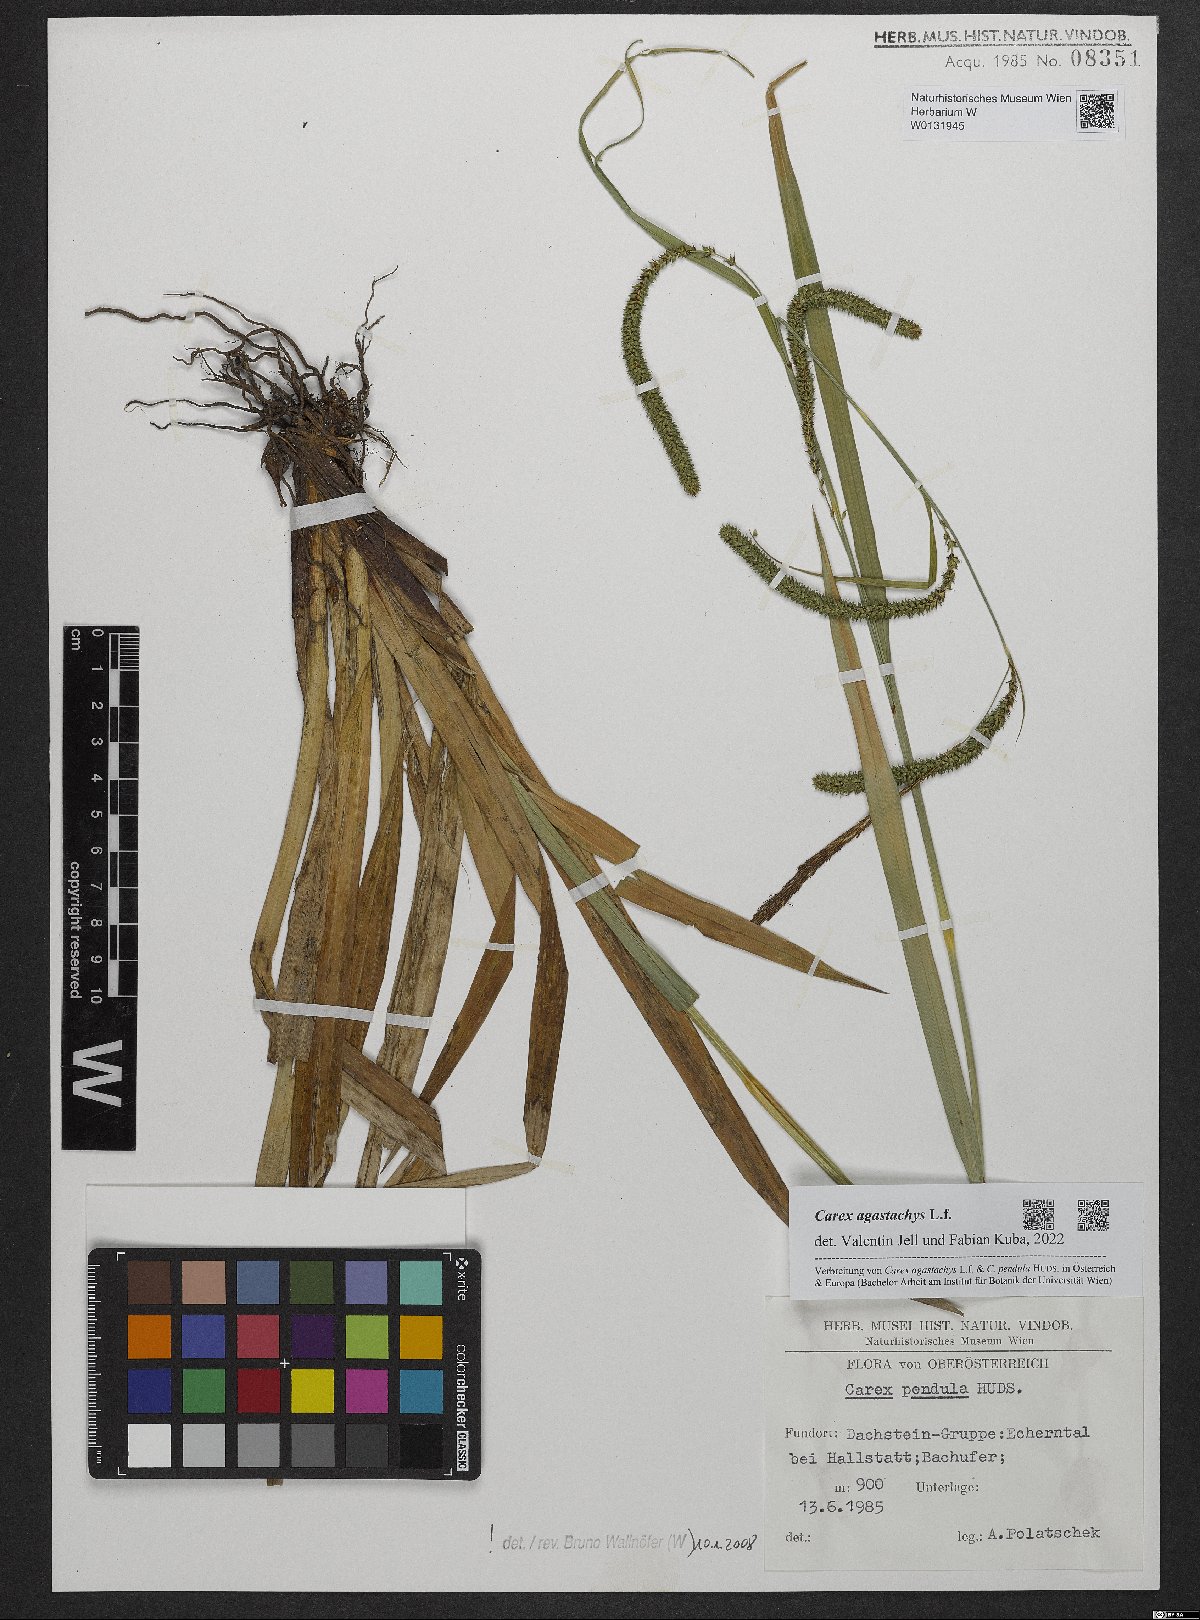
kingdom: Plantae
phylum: Tracheophyta
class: Liliopsida
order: Poales
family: Cyperaceae
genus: Carex
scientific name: Carex agastachys
